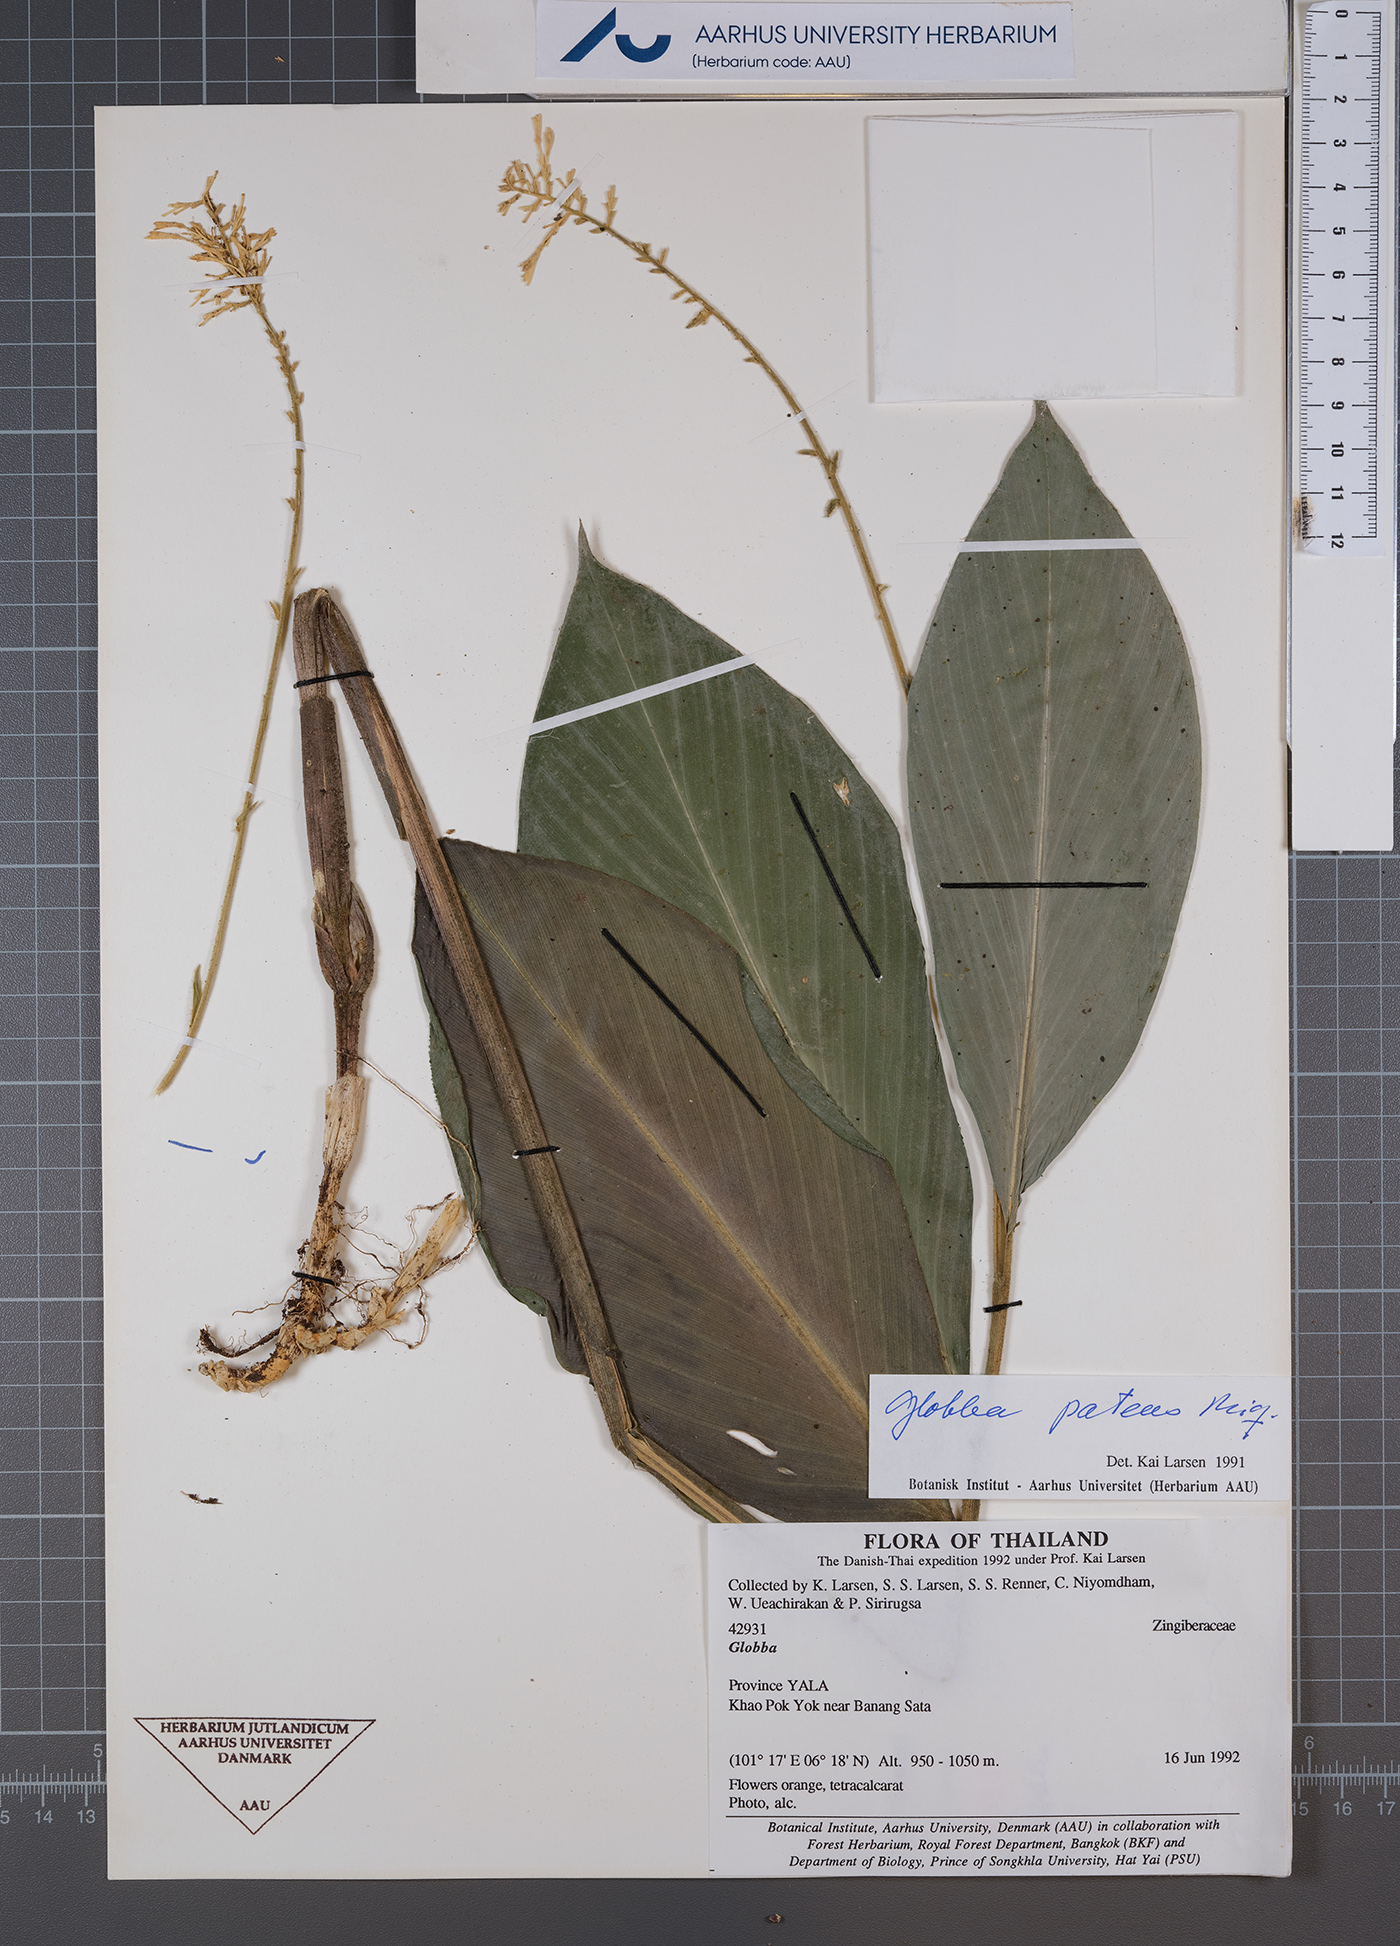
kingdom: Plantae
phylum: Tracheophyta
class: Liliopsida
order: Zingiberales
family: Zingiberaceae
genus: Globba
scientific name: Globba patens
